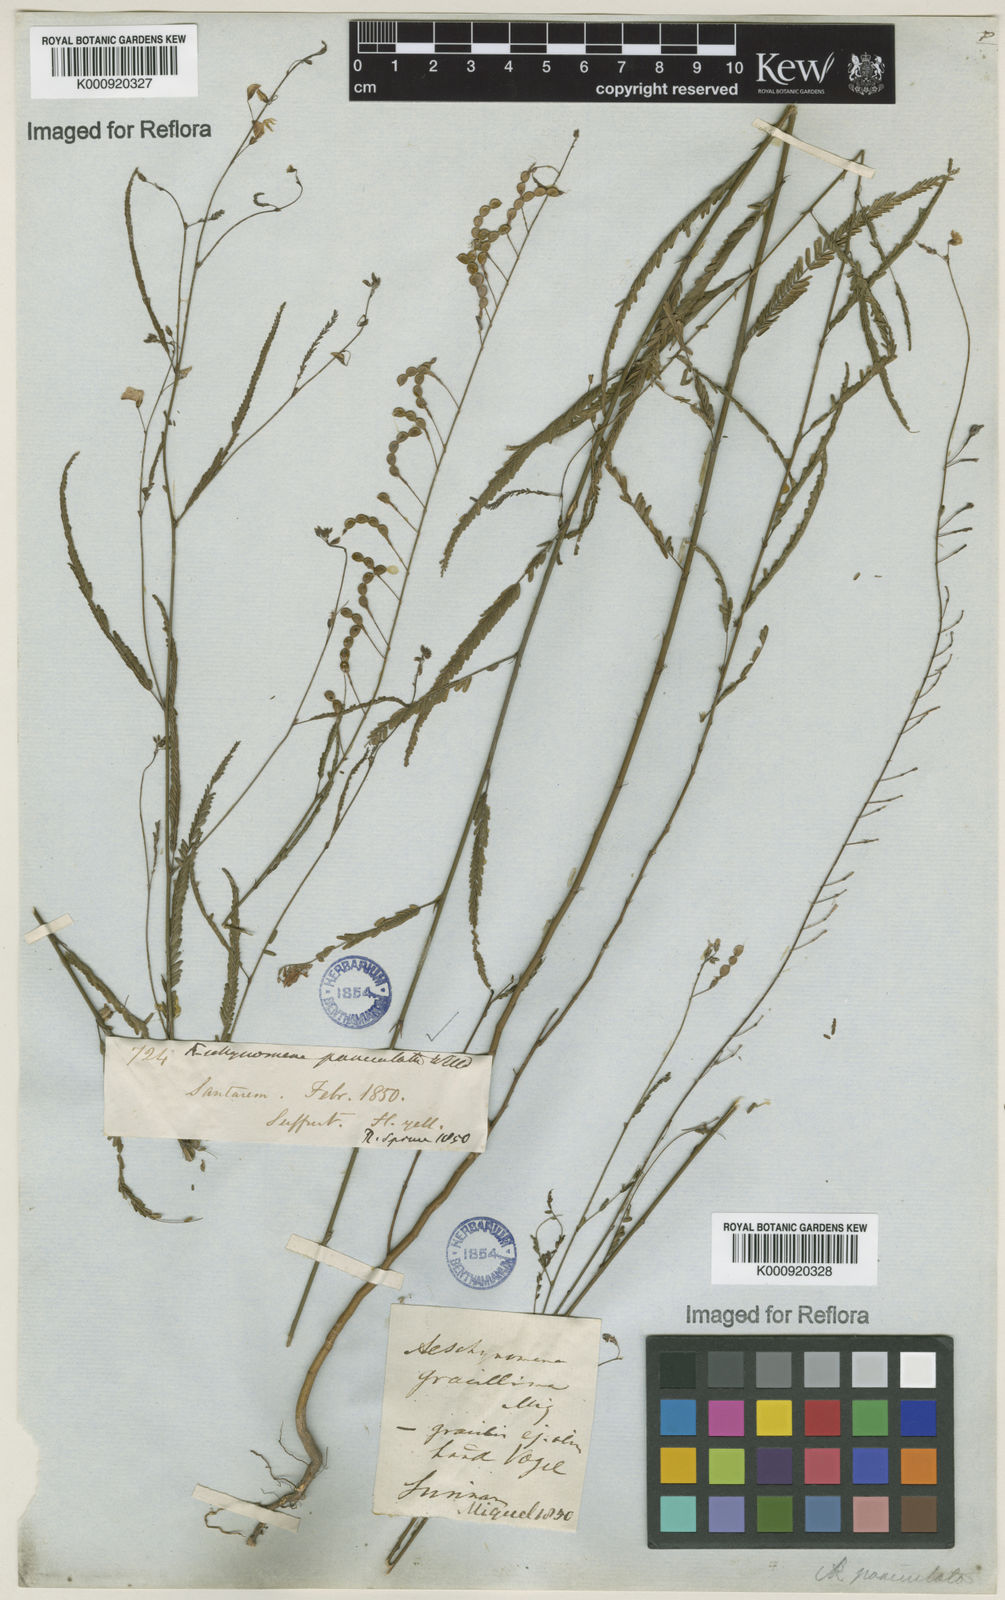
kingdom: Plantae
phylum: Tracheophyta
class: Magnoliopsida
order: Fabales
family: Fabaceae
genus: Ctenodon
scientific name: Ctenodon paniculatus
